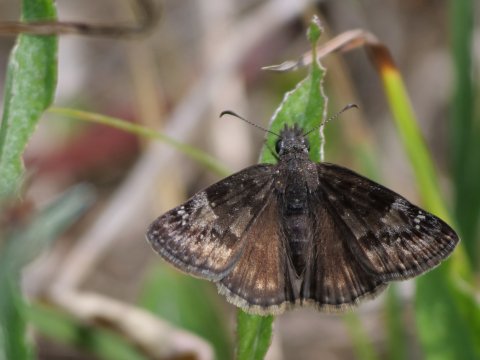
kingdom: Animalia
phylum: Arthropoda
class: Insecta
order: Lepidoptera
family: Hesperiidae
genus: Gesta
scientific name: Gesta
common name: Wild Indigo Duskywing
